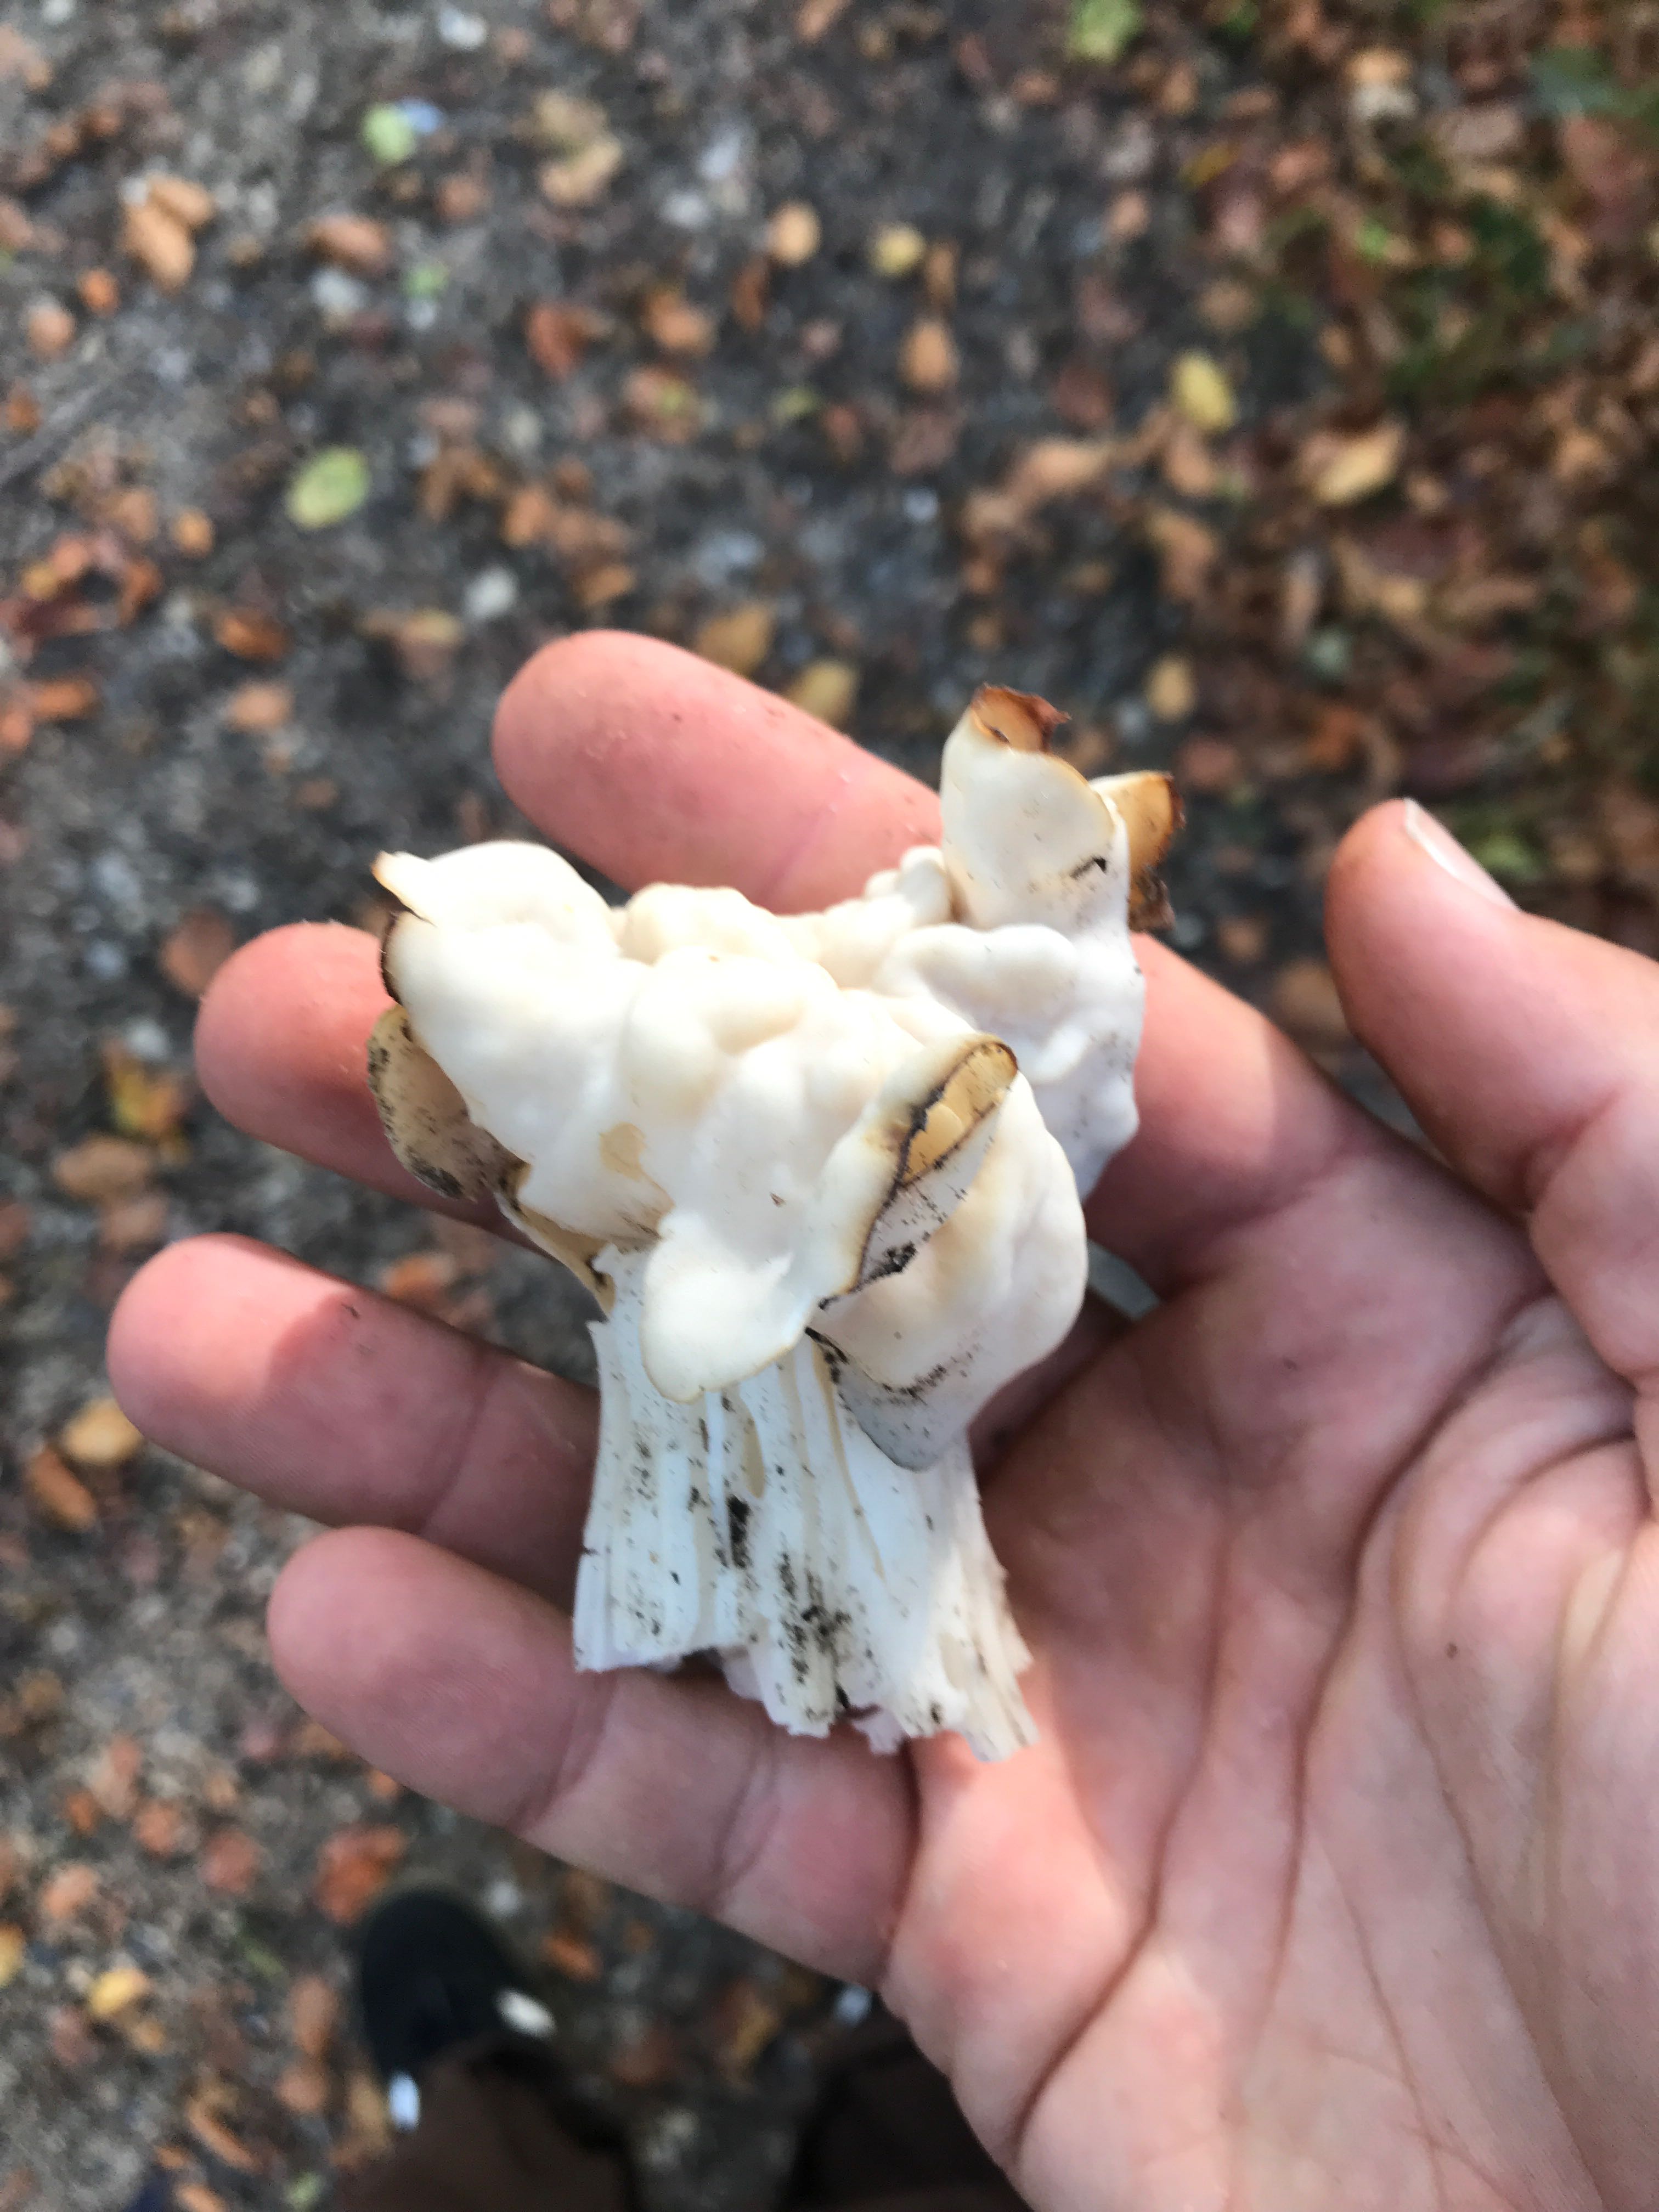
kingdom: Fungi
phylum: Ascomycota
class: Pezizomycetes
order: Pezizales
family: Helvellaceae
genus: Helvella
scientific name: Helvella crispa
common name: kruset foldhat
